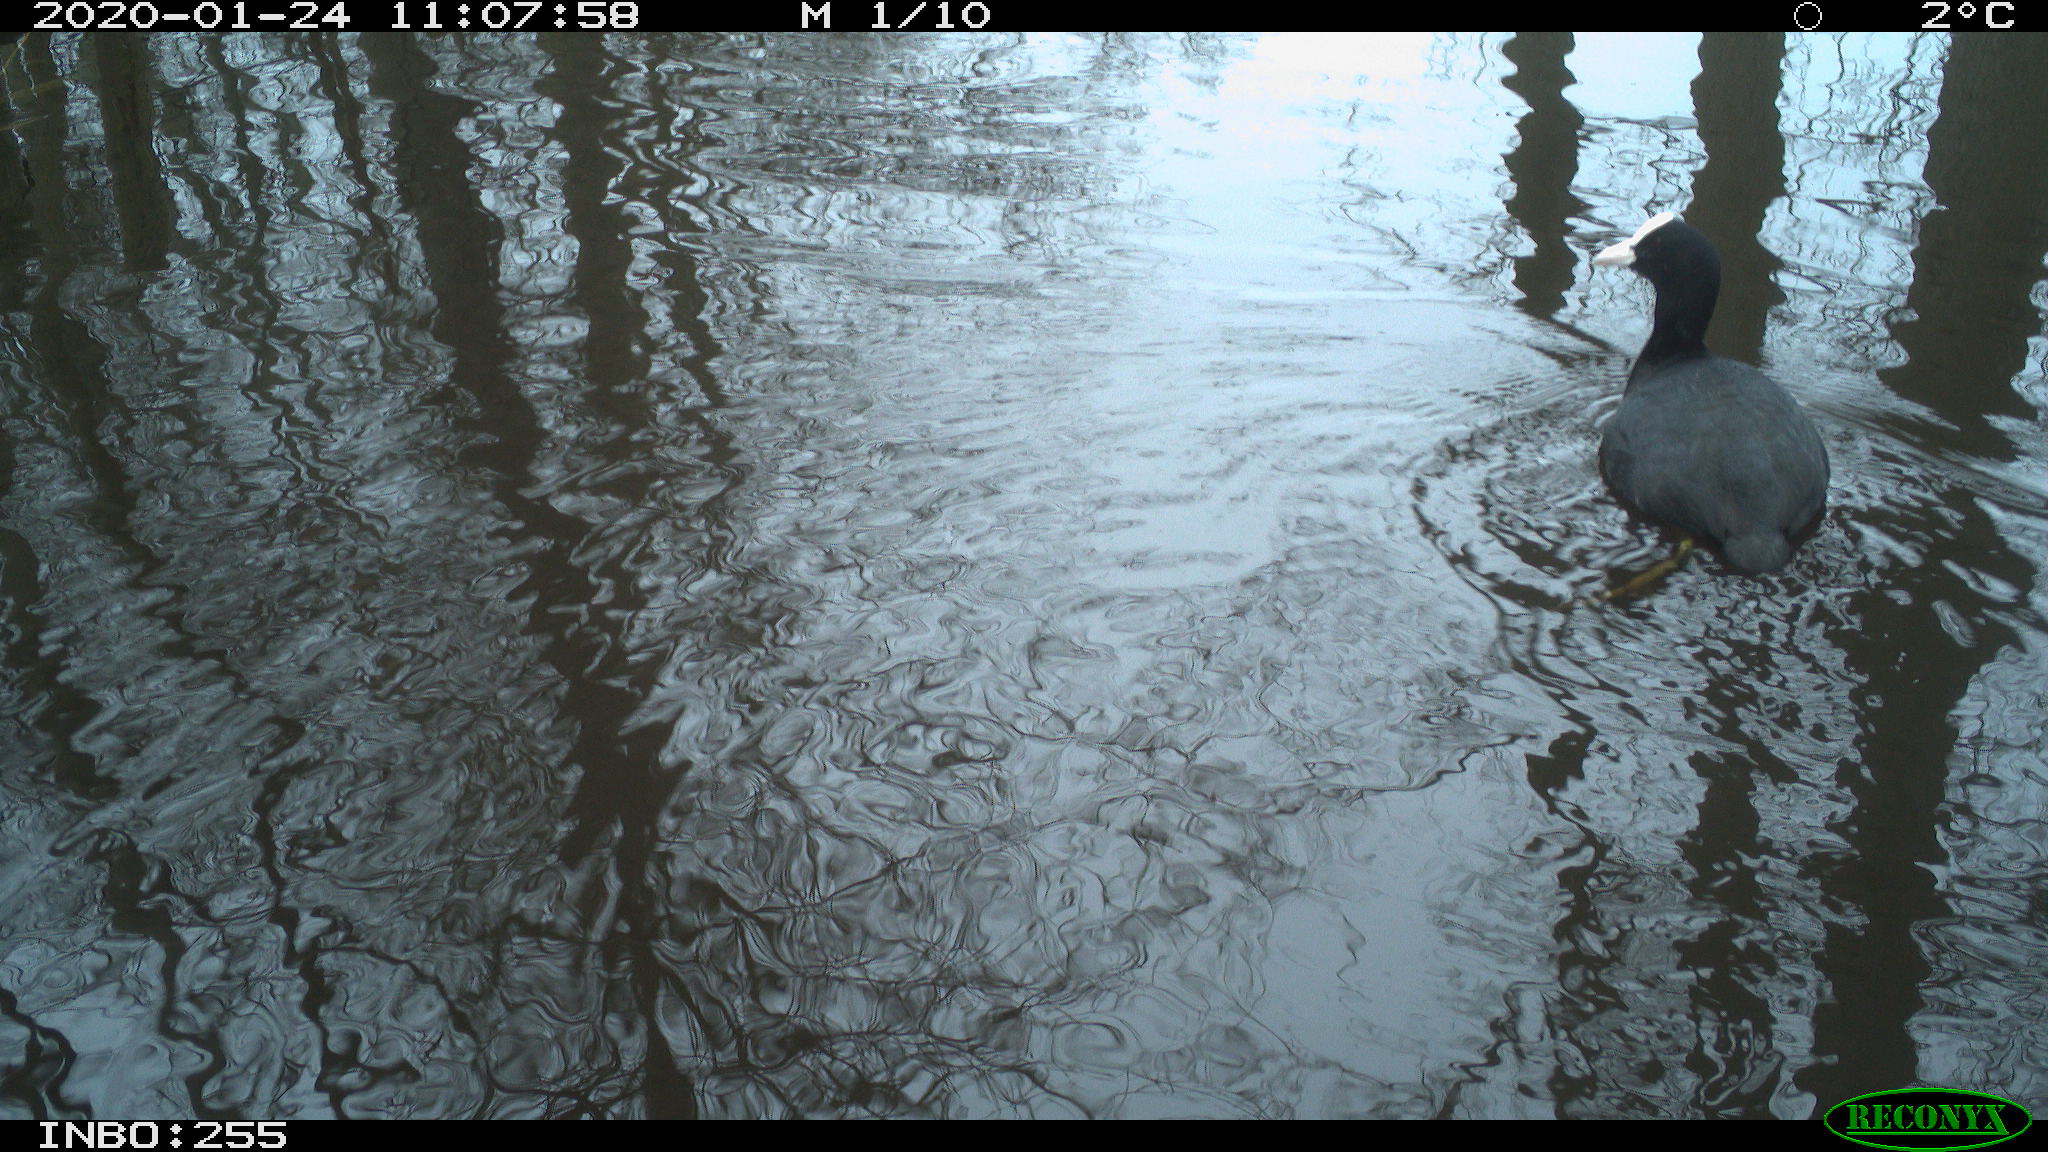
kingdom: Animalia
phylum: Chordata
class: Aves
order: Gruiformes
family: Rallidae
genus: Fulica
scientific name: Fulica atra
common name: Eurasian coot
